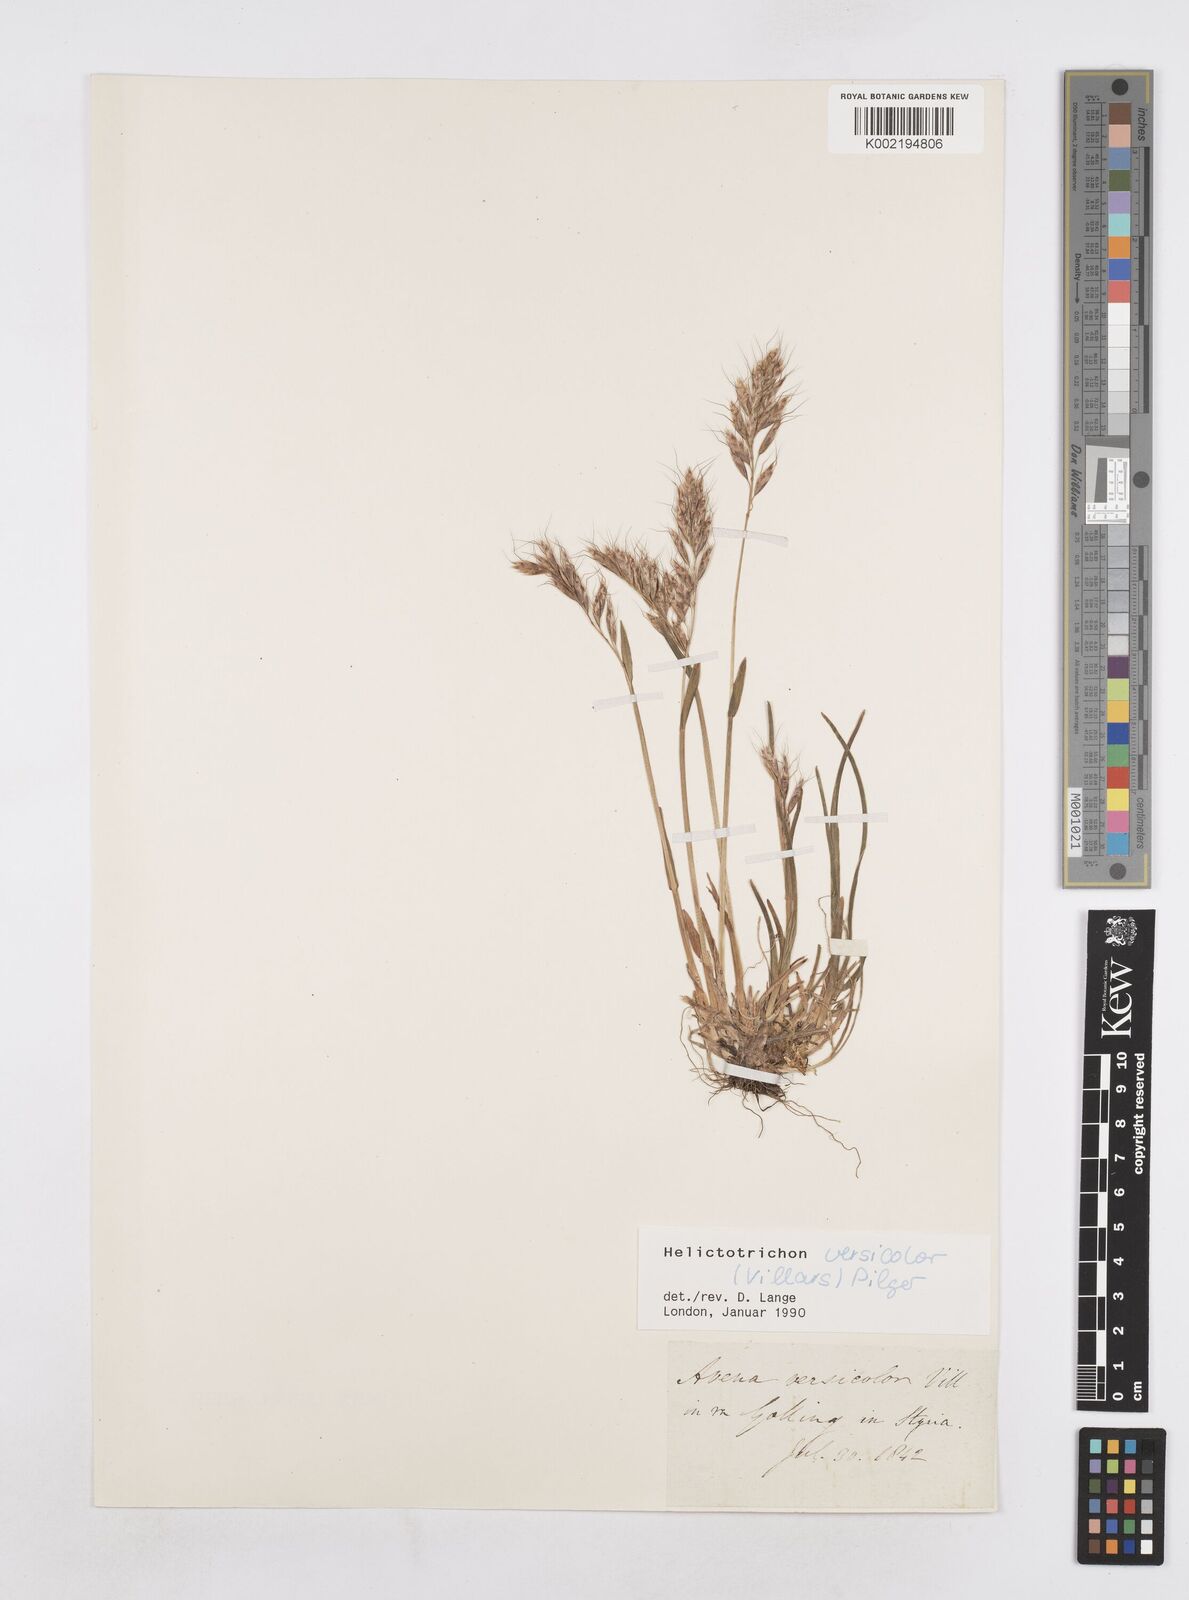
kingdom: Plantae
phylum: Tracheophyta
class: Liliopsida
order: Poales
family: Poaceae
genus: Helictochloa
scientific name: Helictochloa versicolor
